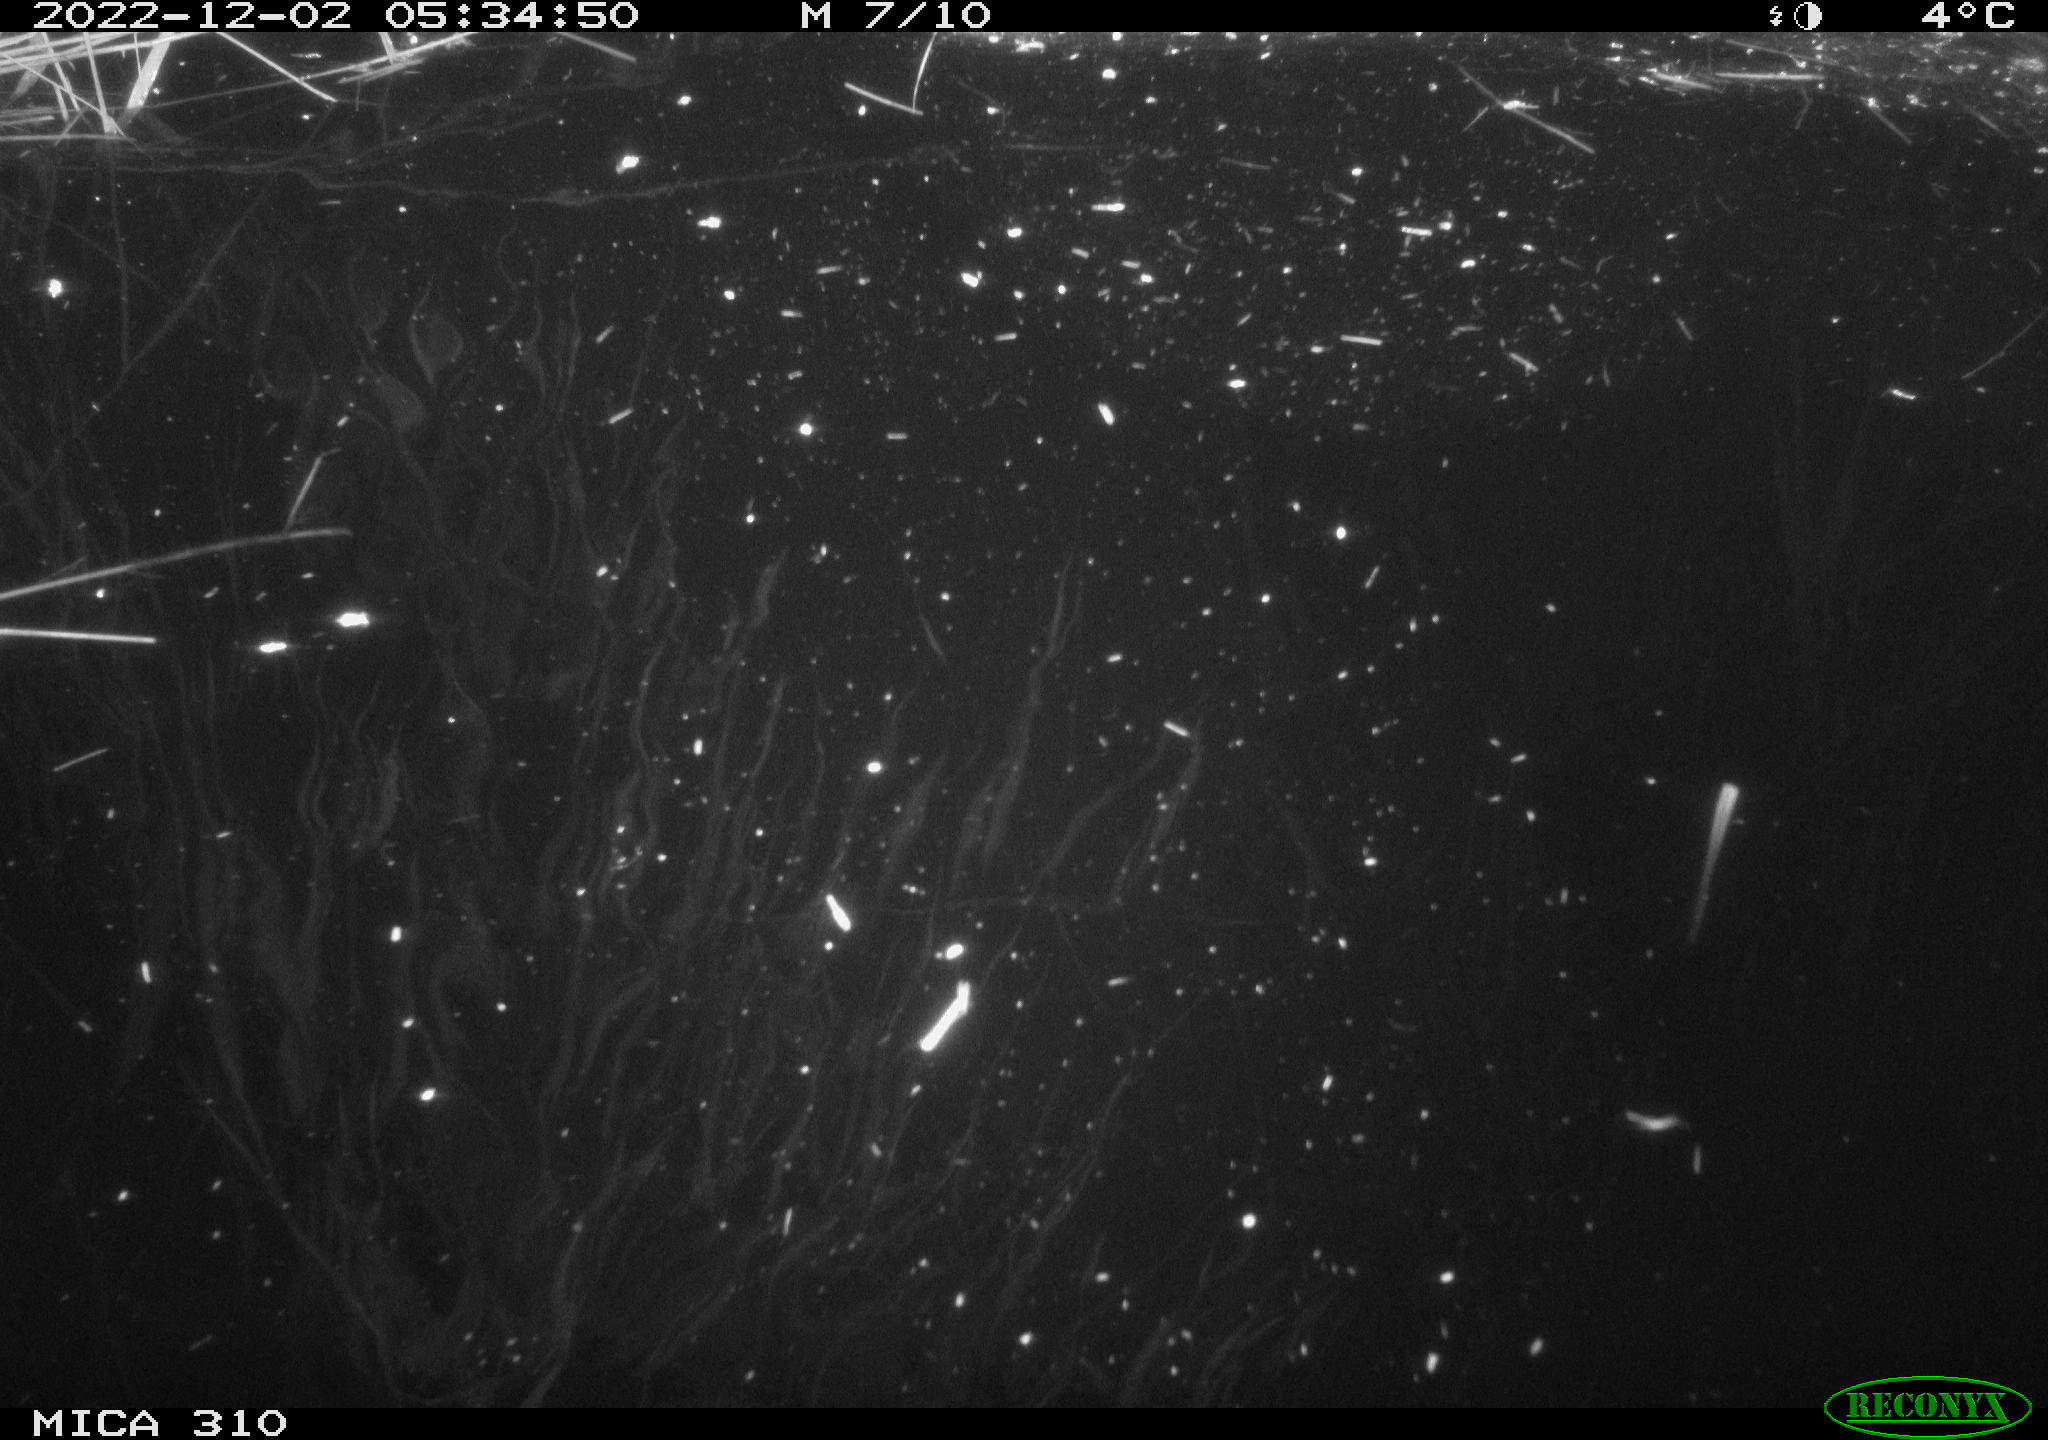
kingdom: Animalia
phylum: Chordata
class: Mammalia
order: Rodentia
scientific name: Rodentia
